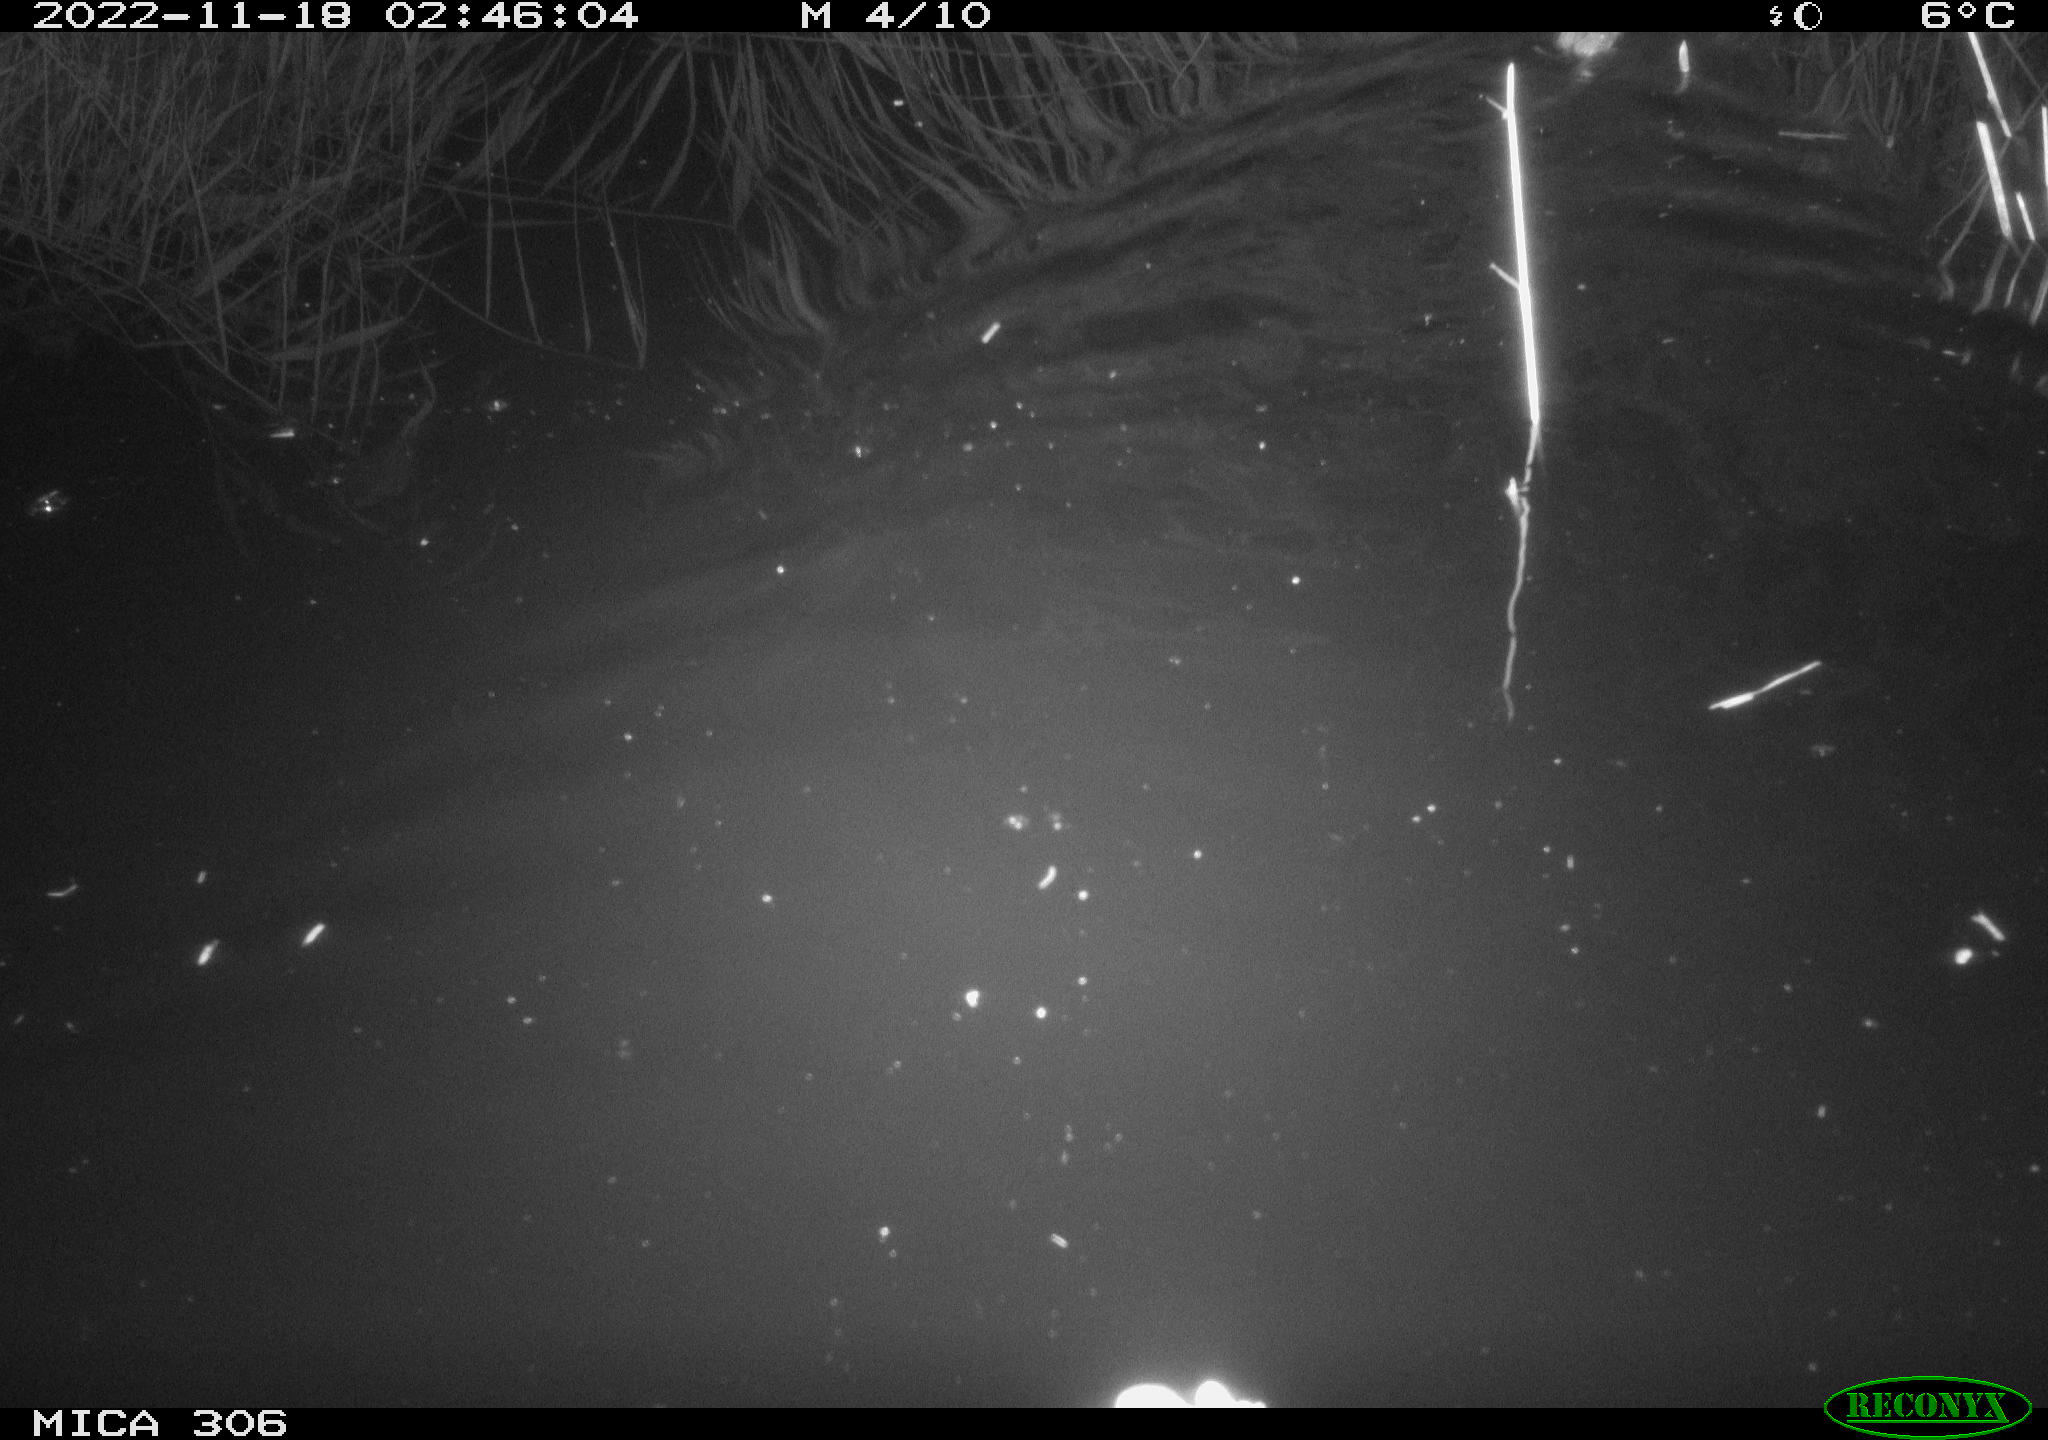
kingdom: Animalia
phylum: Chordata
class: Mammalia
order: Rodentia
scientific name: Rodentia
